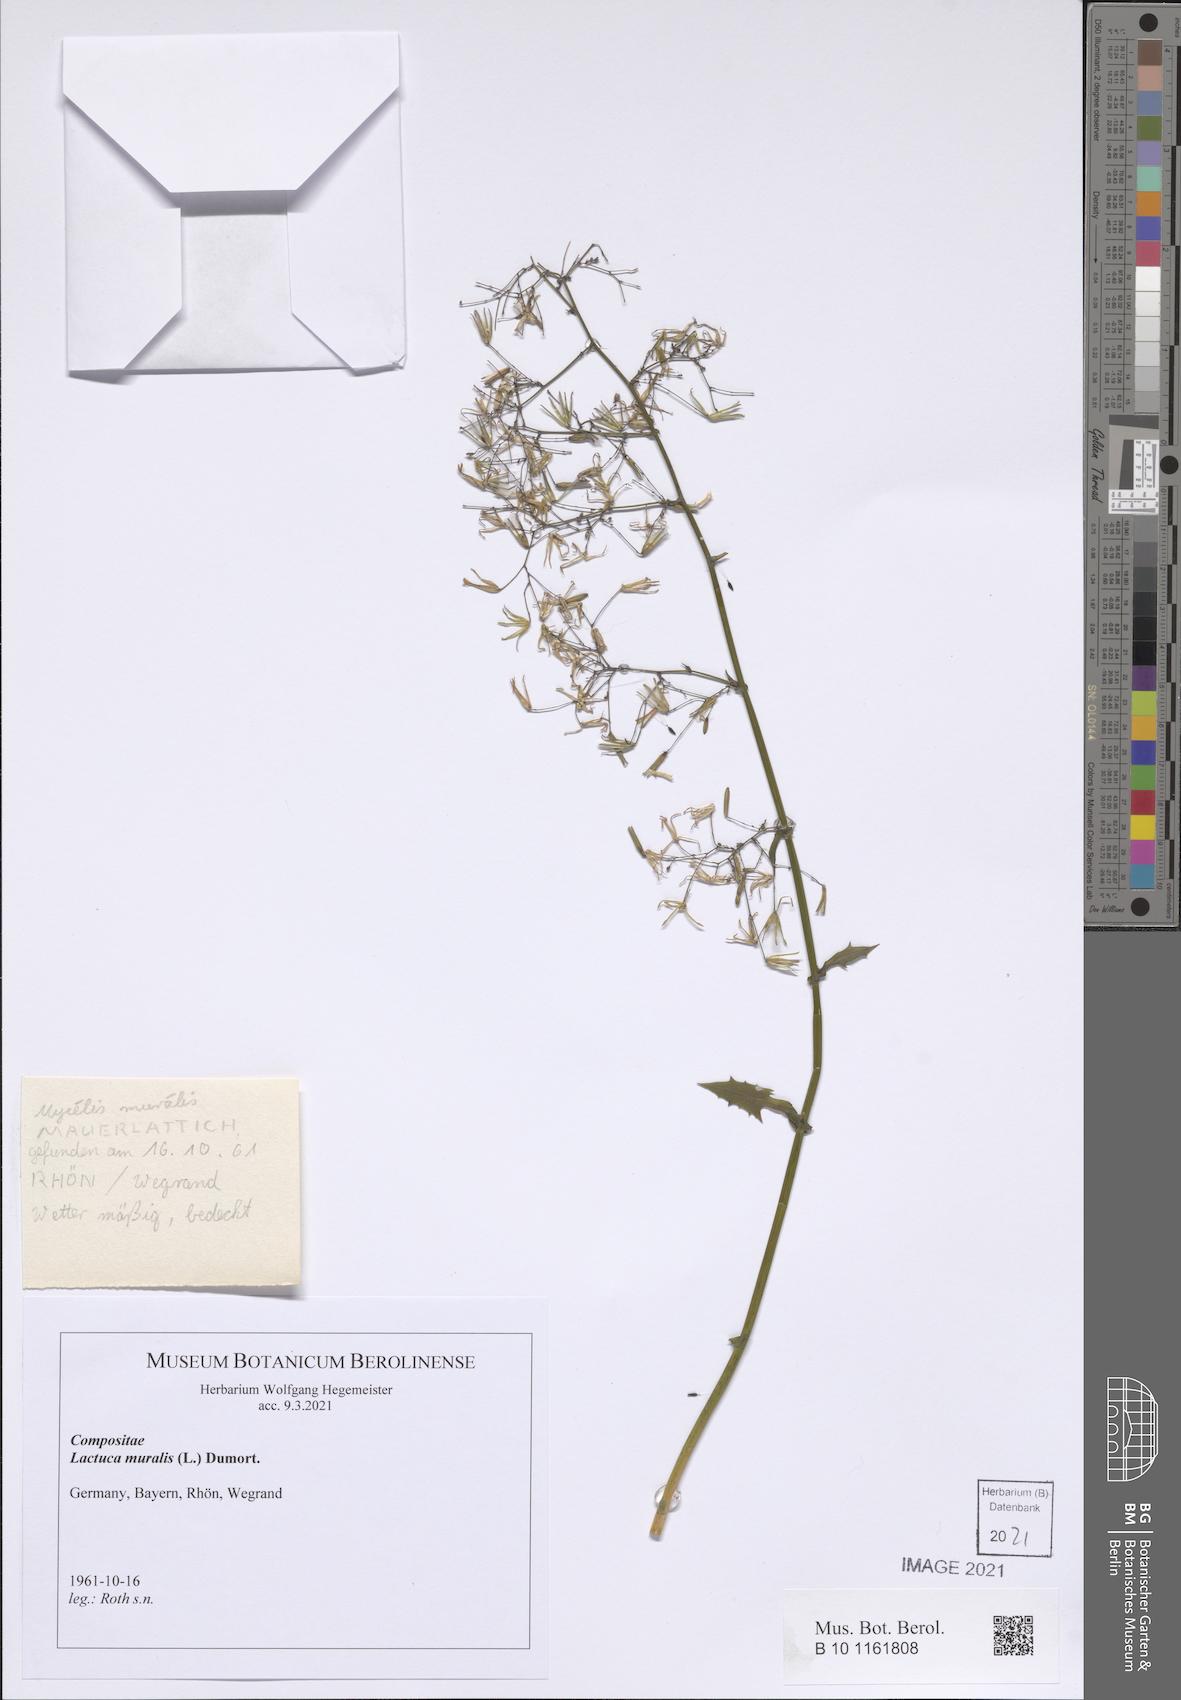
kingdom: Plantae
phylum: Tracheophyta
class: Magnoliopsida
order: Asterales
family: Asteraceae
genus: Mycelis
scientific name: Mycelis muralis
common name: Wall lettuce
